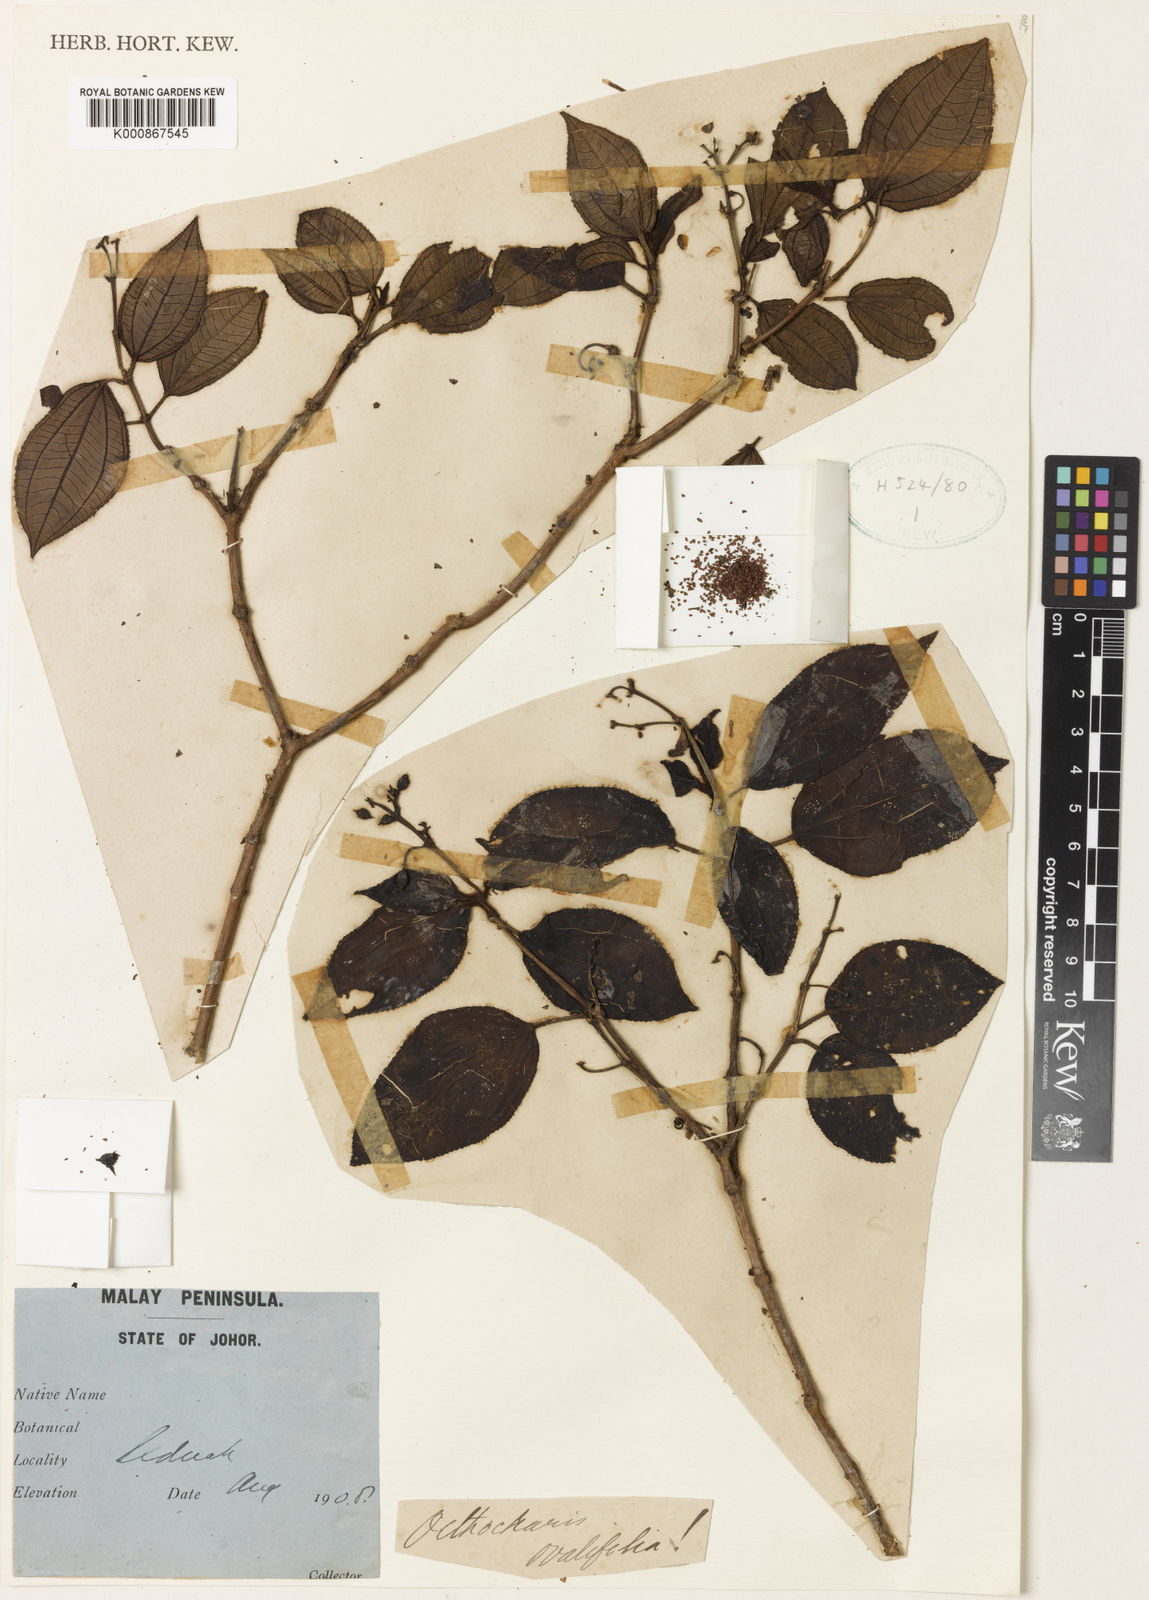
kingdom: Plantae
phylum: Tracheophyta
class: Magnoliopsida
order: Myrtales
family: Melastomataceae
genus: Ochthocharis
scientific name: Ochthocharis ovalifolia
